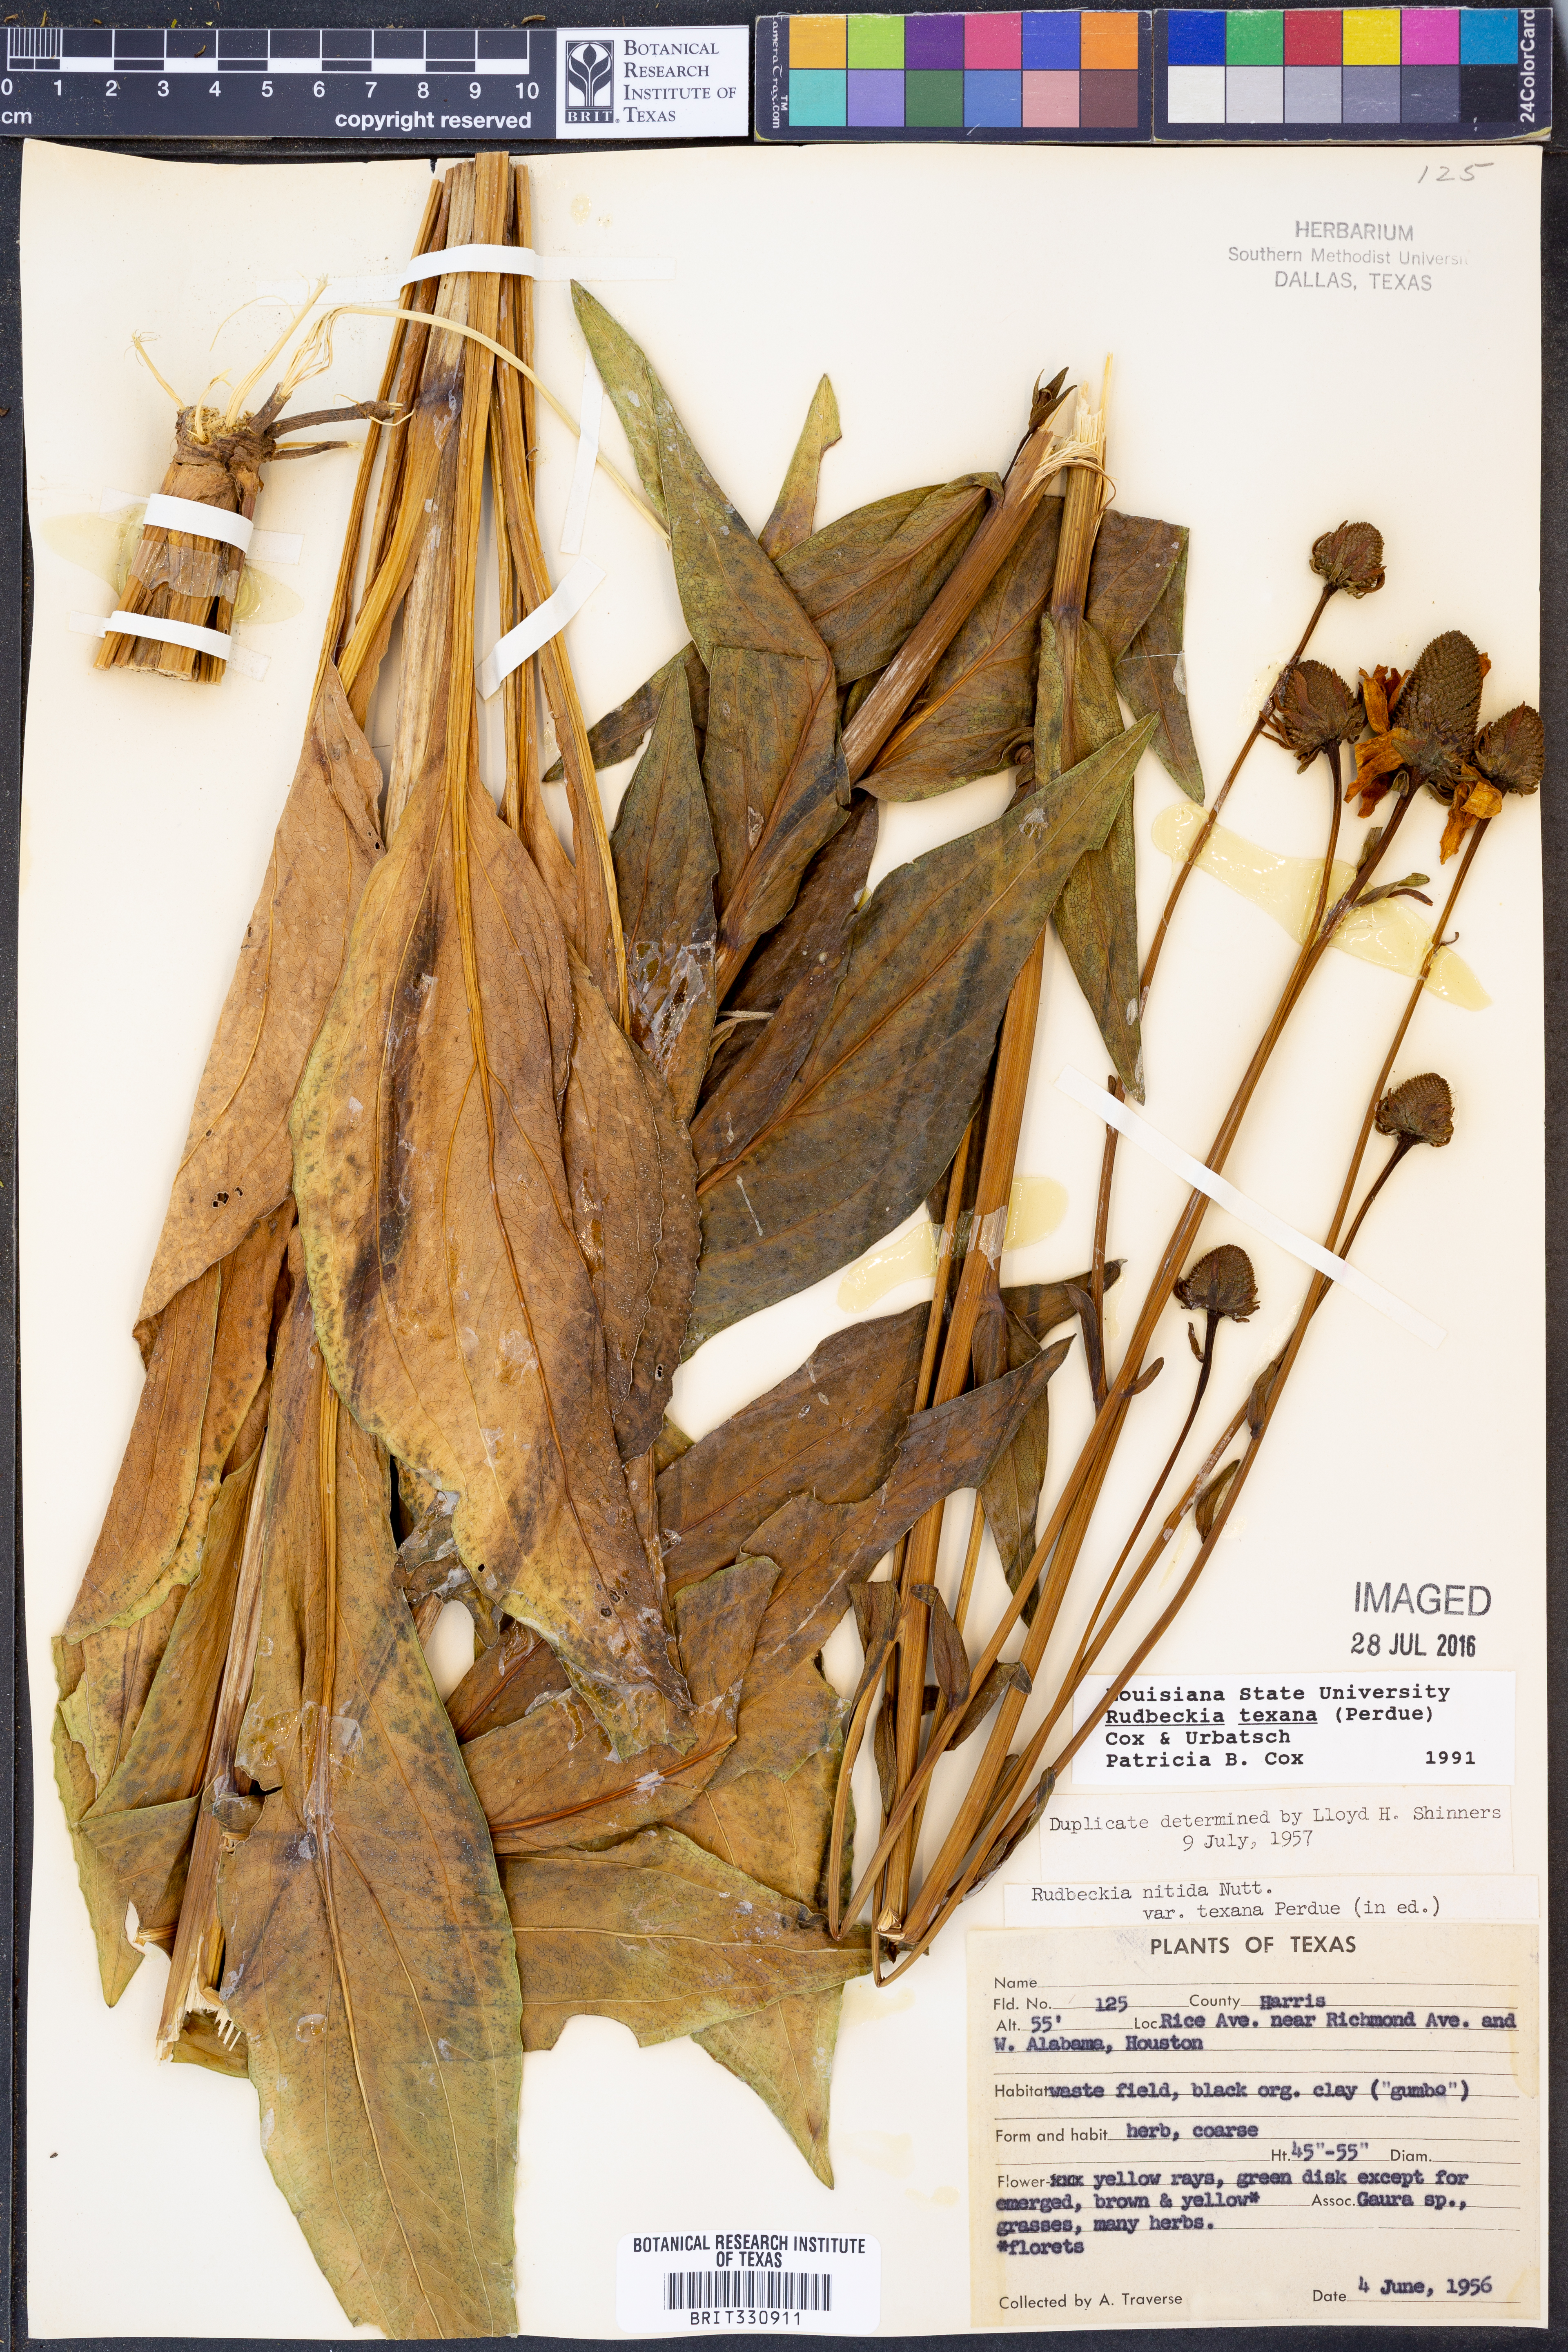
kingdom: Plantae
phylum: Tracheophyta
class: Magnoliopsida
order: Asterales
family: Asteraceae
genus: Rudbeckia
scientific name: Rudbeckia texana
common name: Texas coneflower
